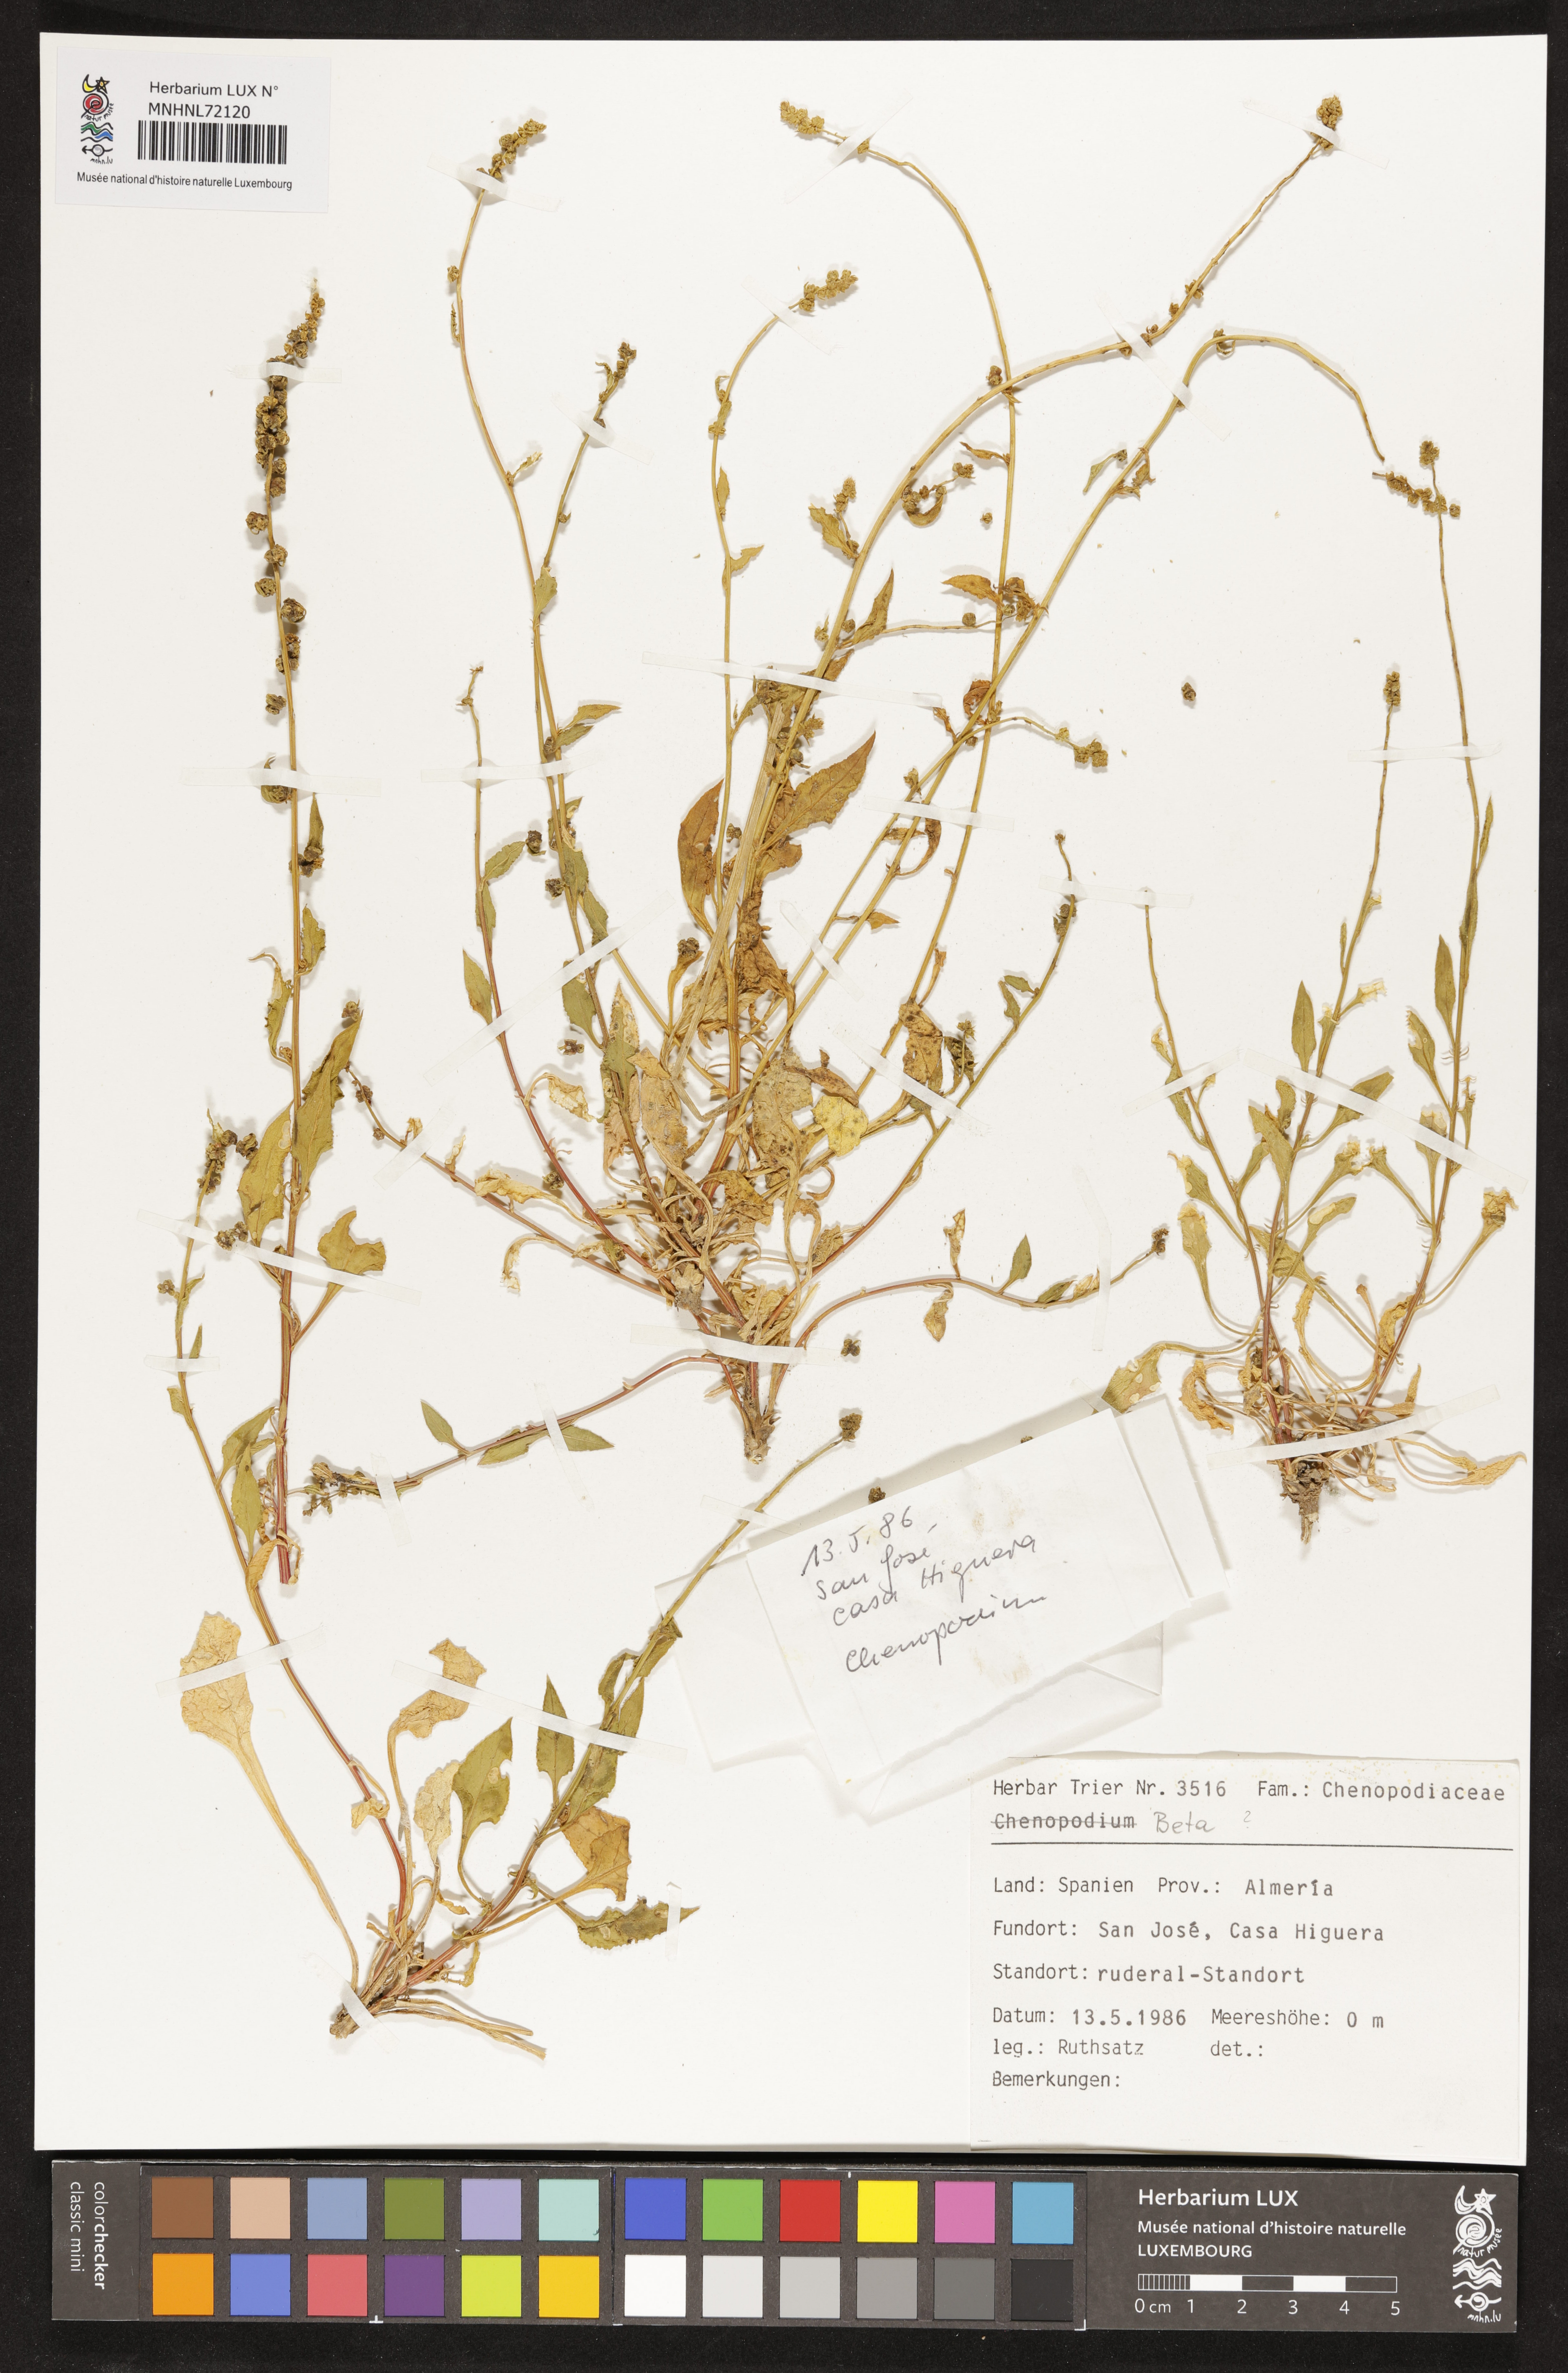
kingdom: Plantae
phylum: Tracheophyta
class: Magnoliopsida
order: Caryophyllales
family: Amaranthaceae
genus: Beta
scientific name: Beta
